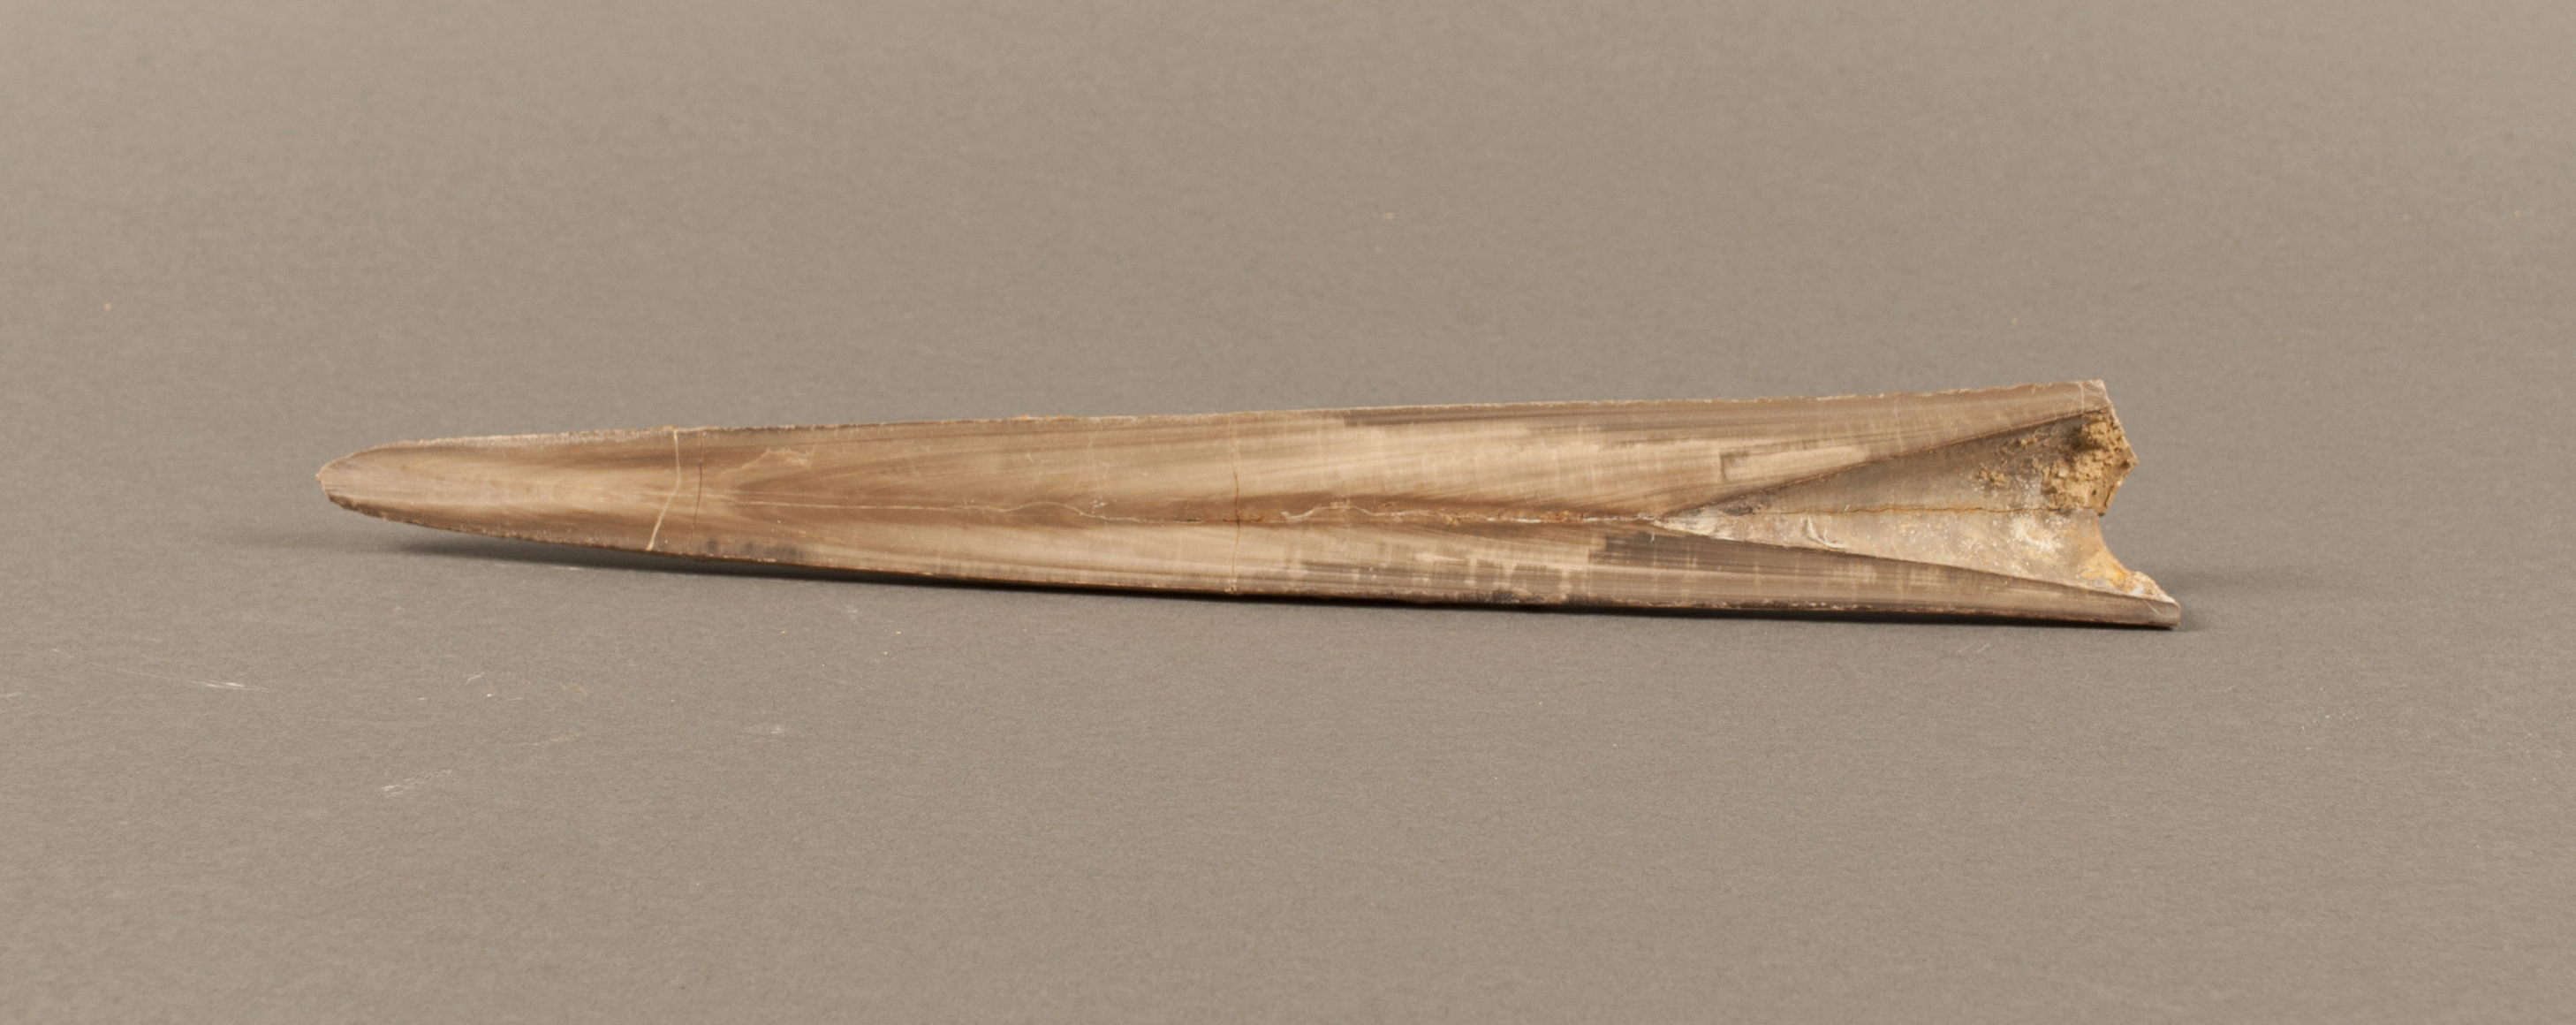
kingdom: Animalia
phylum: Mollusca
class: Cephalopoda
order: Belemnitida
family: Megateuthididae
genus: Megateuthis
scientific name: Megateuthis
